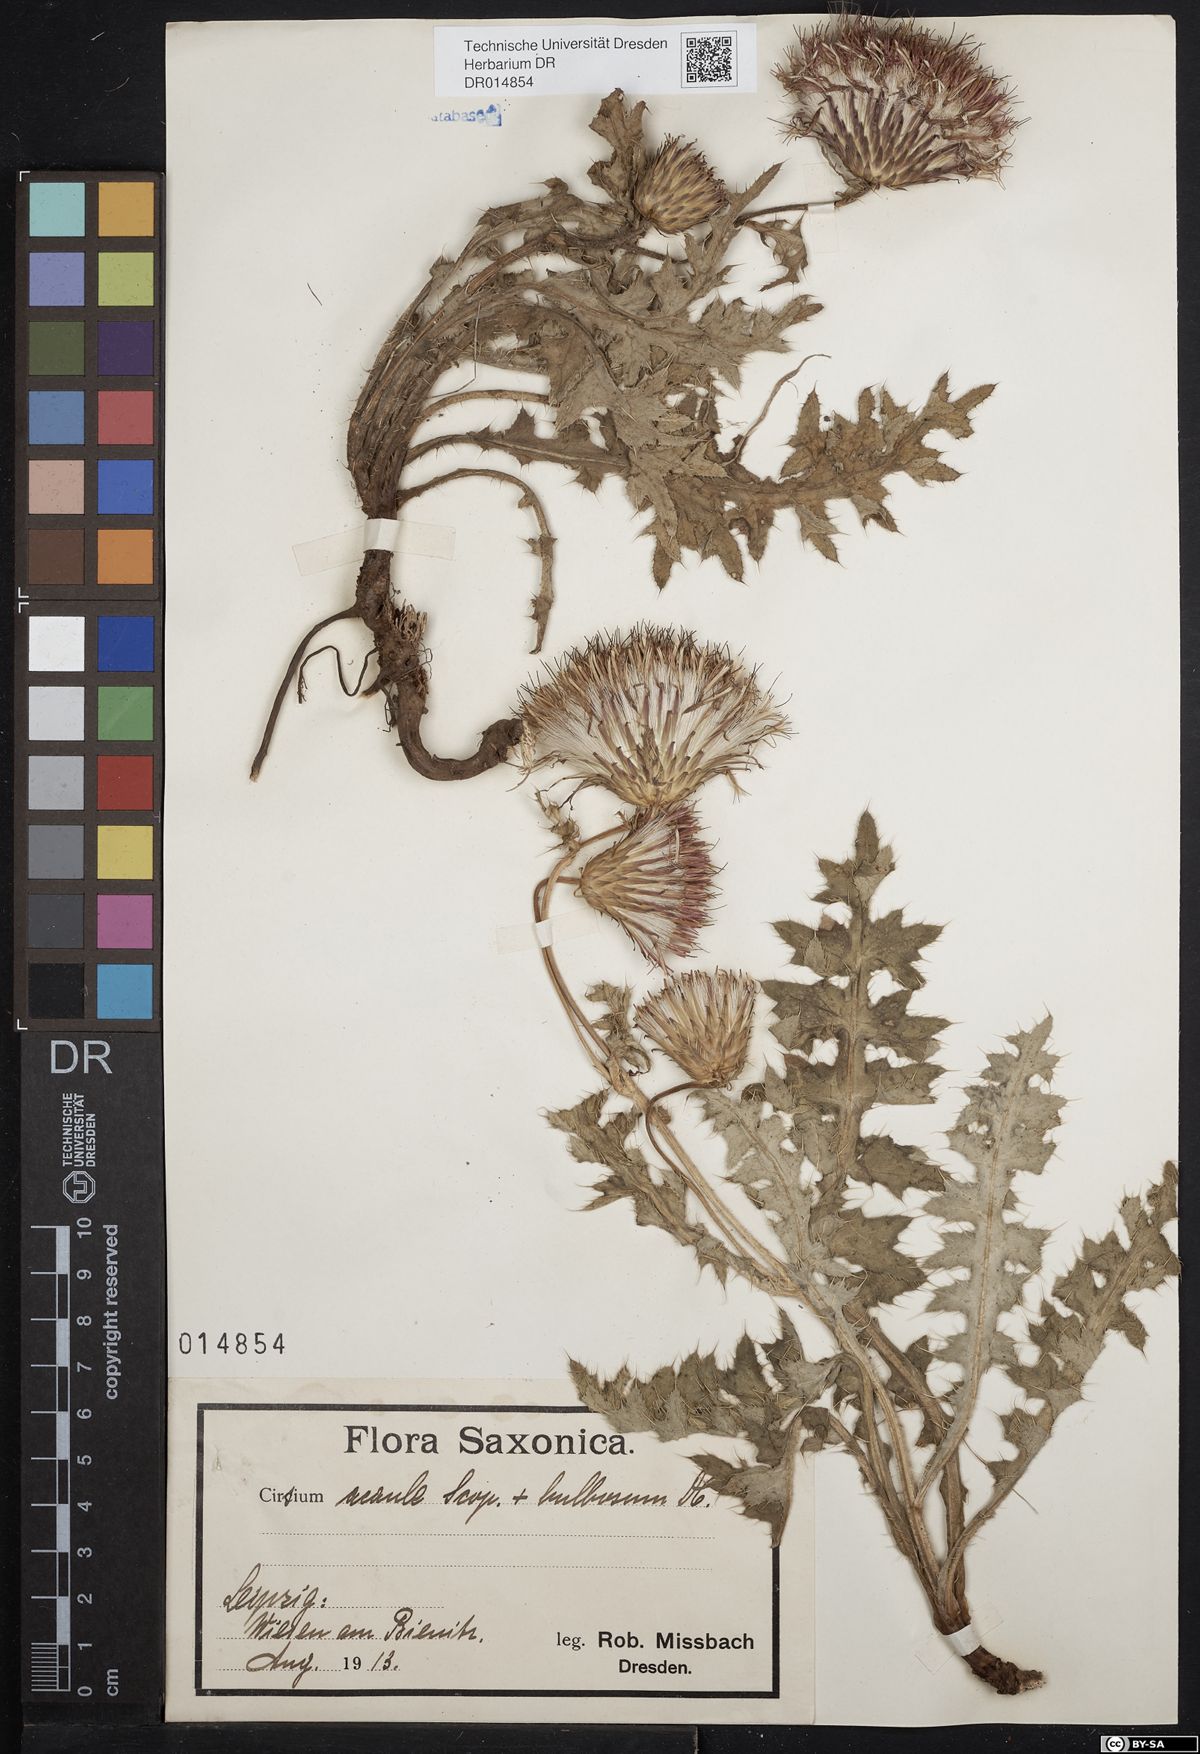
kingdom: Plantae
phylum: Tracheophyta
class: Magnoliopsida
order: Asterales
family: Asteraceae
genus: Cirsium
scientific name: Cirsium medium
